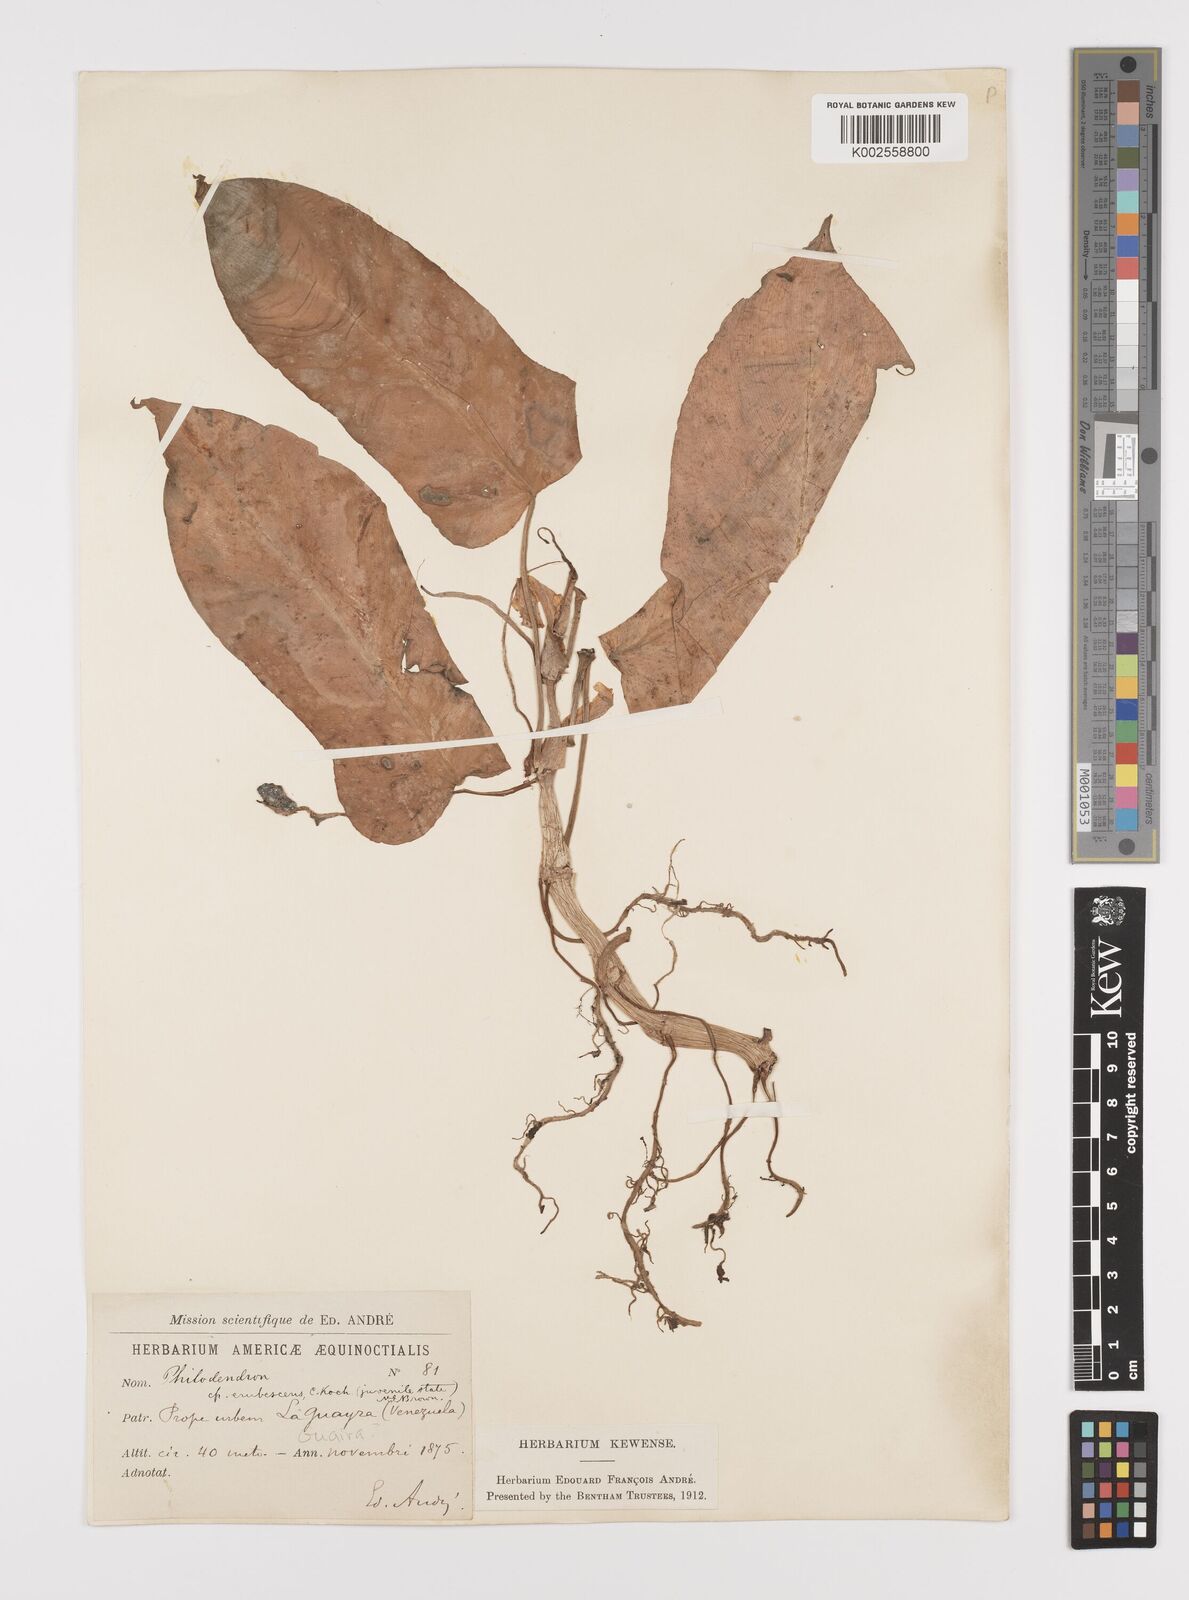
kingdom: Plantae
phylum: Tracheophyta
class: Liliopsida
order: Alismatales
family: Araceae
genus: Philodendron
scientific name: Philodendron erubescens
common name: Philodendron
